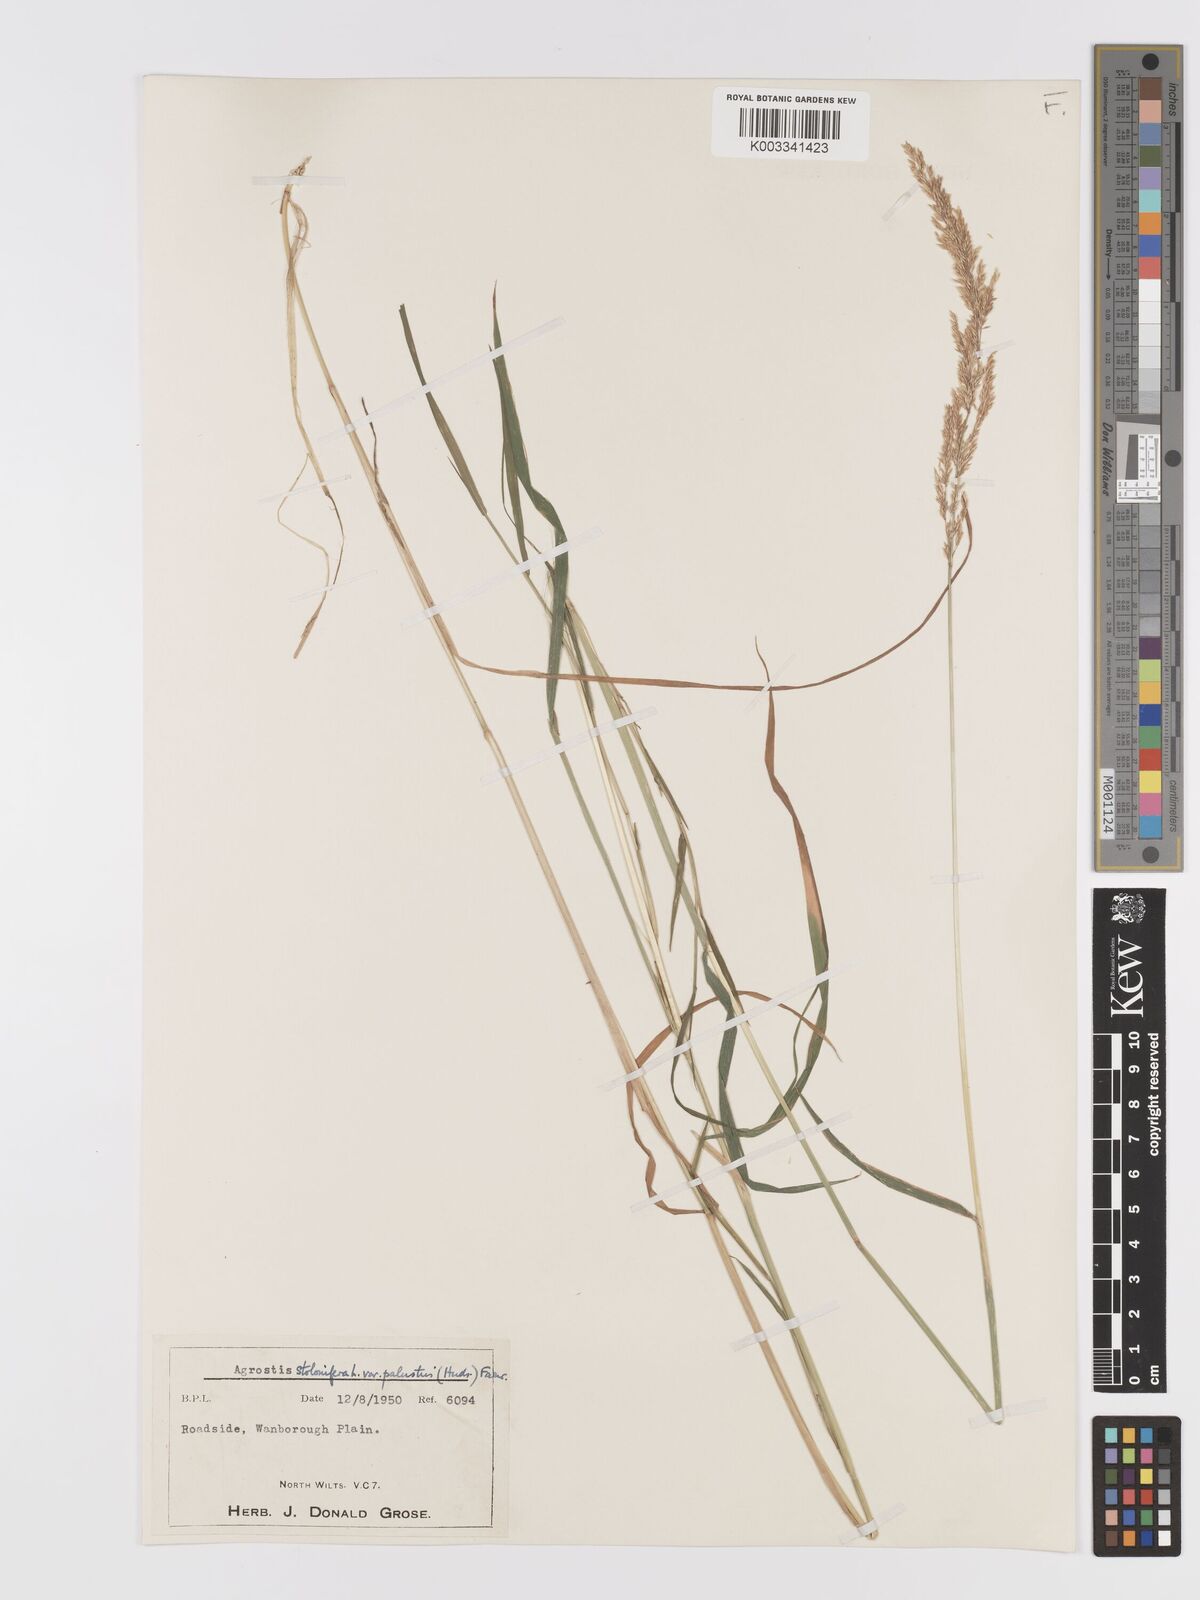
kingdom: Plantae
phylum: Tracheophyta
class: Liliopsida
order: Poales
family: Poaceae
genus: Agrostis
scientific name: Agrostis stolonifera
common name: Creeping bentgrass
